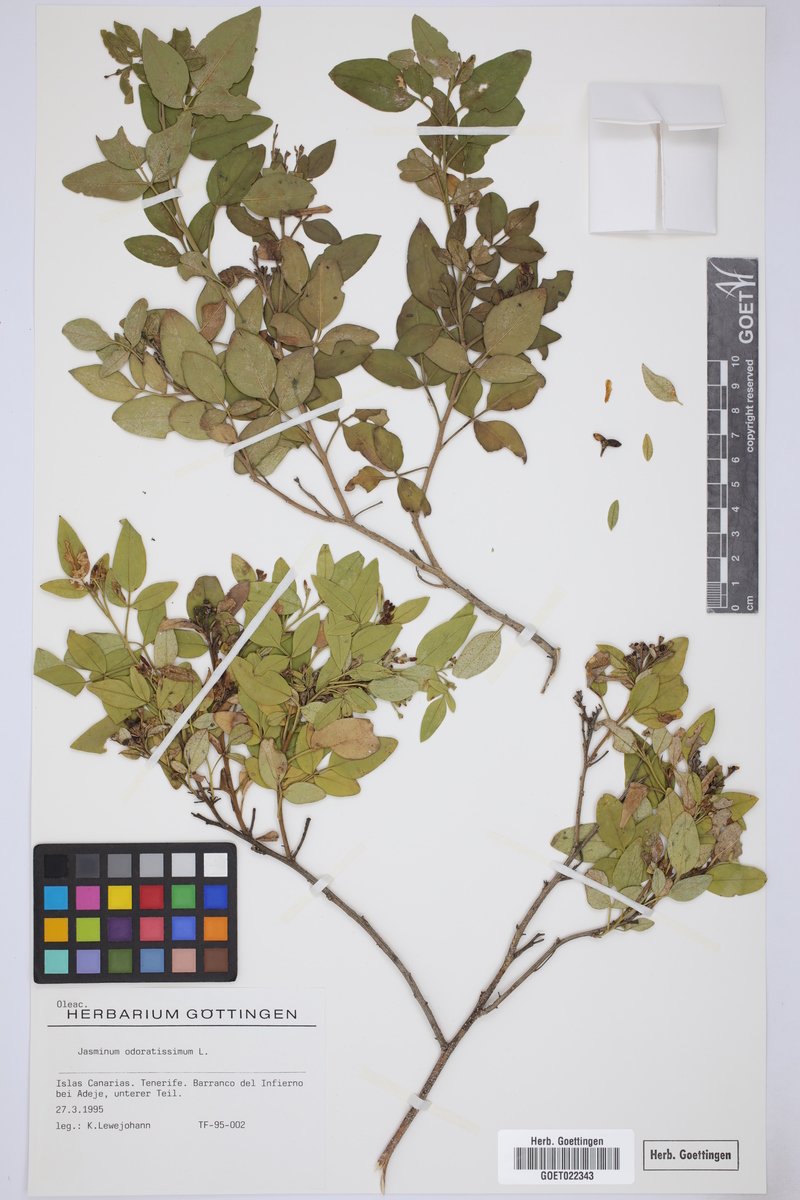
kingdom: Plantae
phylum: Tracheophyta
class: Magnoliopsida
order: Lamiales
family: Oleaceae
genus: Chrysojasminum
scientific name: Chrysojasminum odoratissimum
